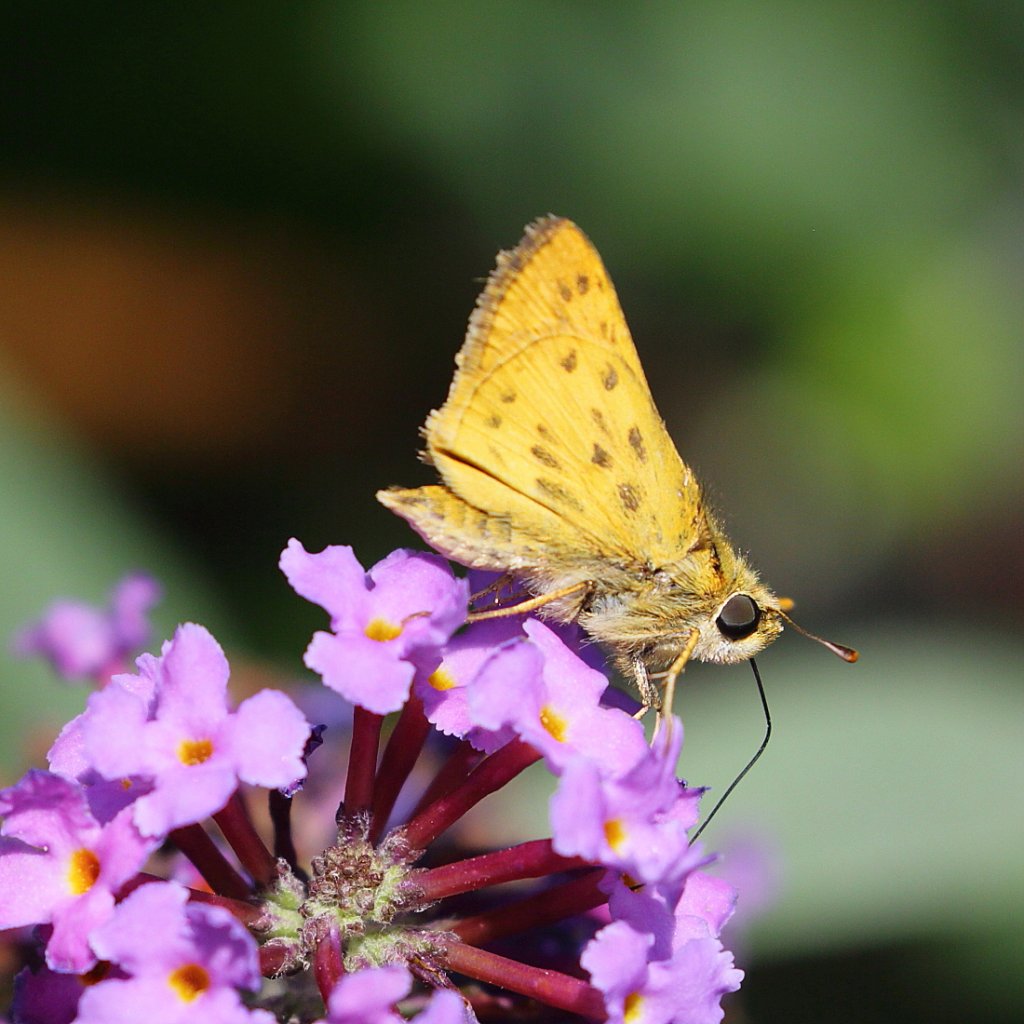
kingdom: Animalia
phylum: Arthropoda
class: Insecta
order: Lepidoptera
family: Hesperiidae
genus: Hylephila
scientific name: Hylephila phyleus
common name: Fiery Skipper
